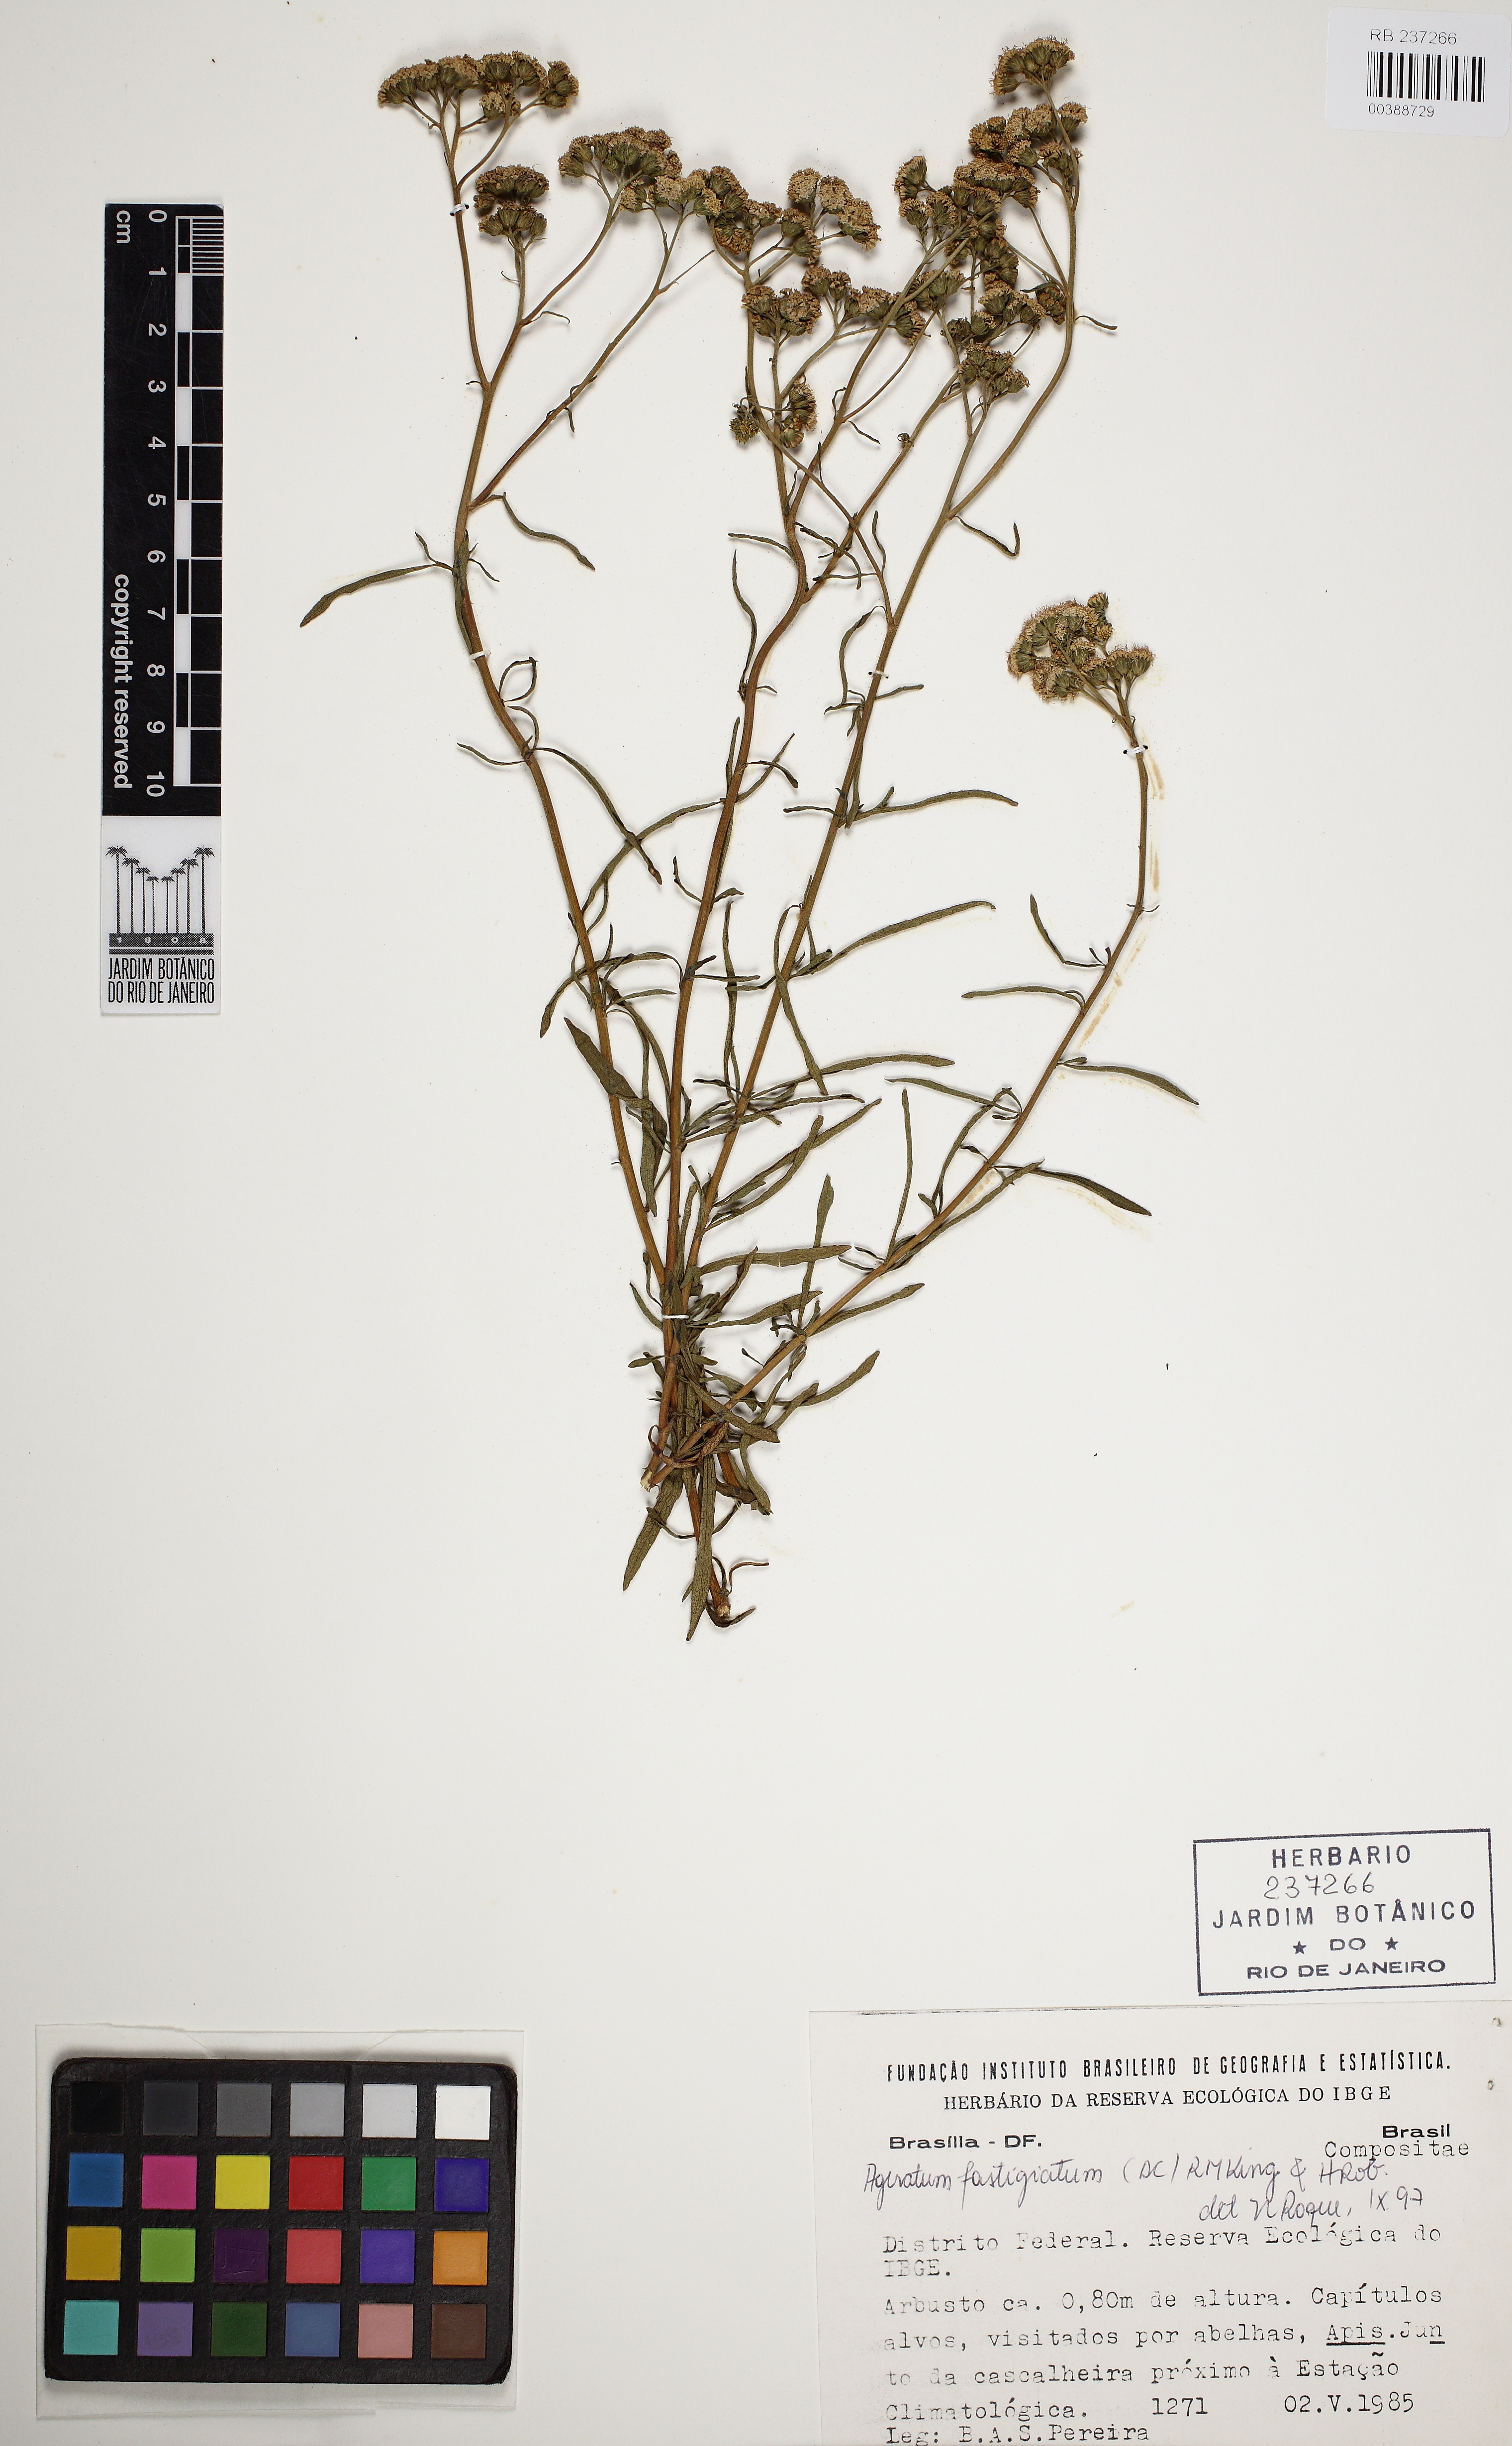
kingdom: Plantae
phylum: Tracheophyta
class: Magnoliopsida
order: Asterales
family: Asteraceae
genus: Ageratum
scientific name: Ageratum fastigiatum
